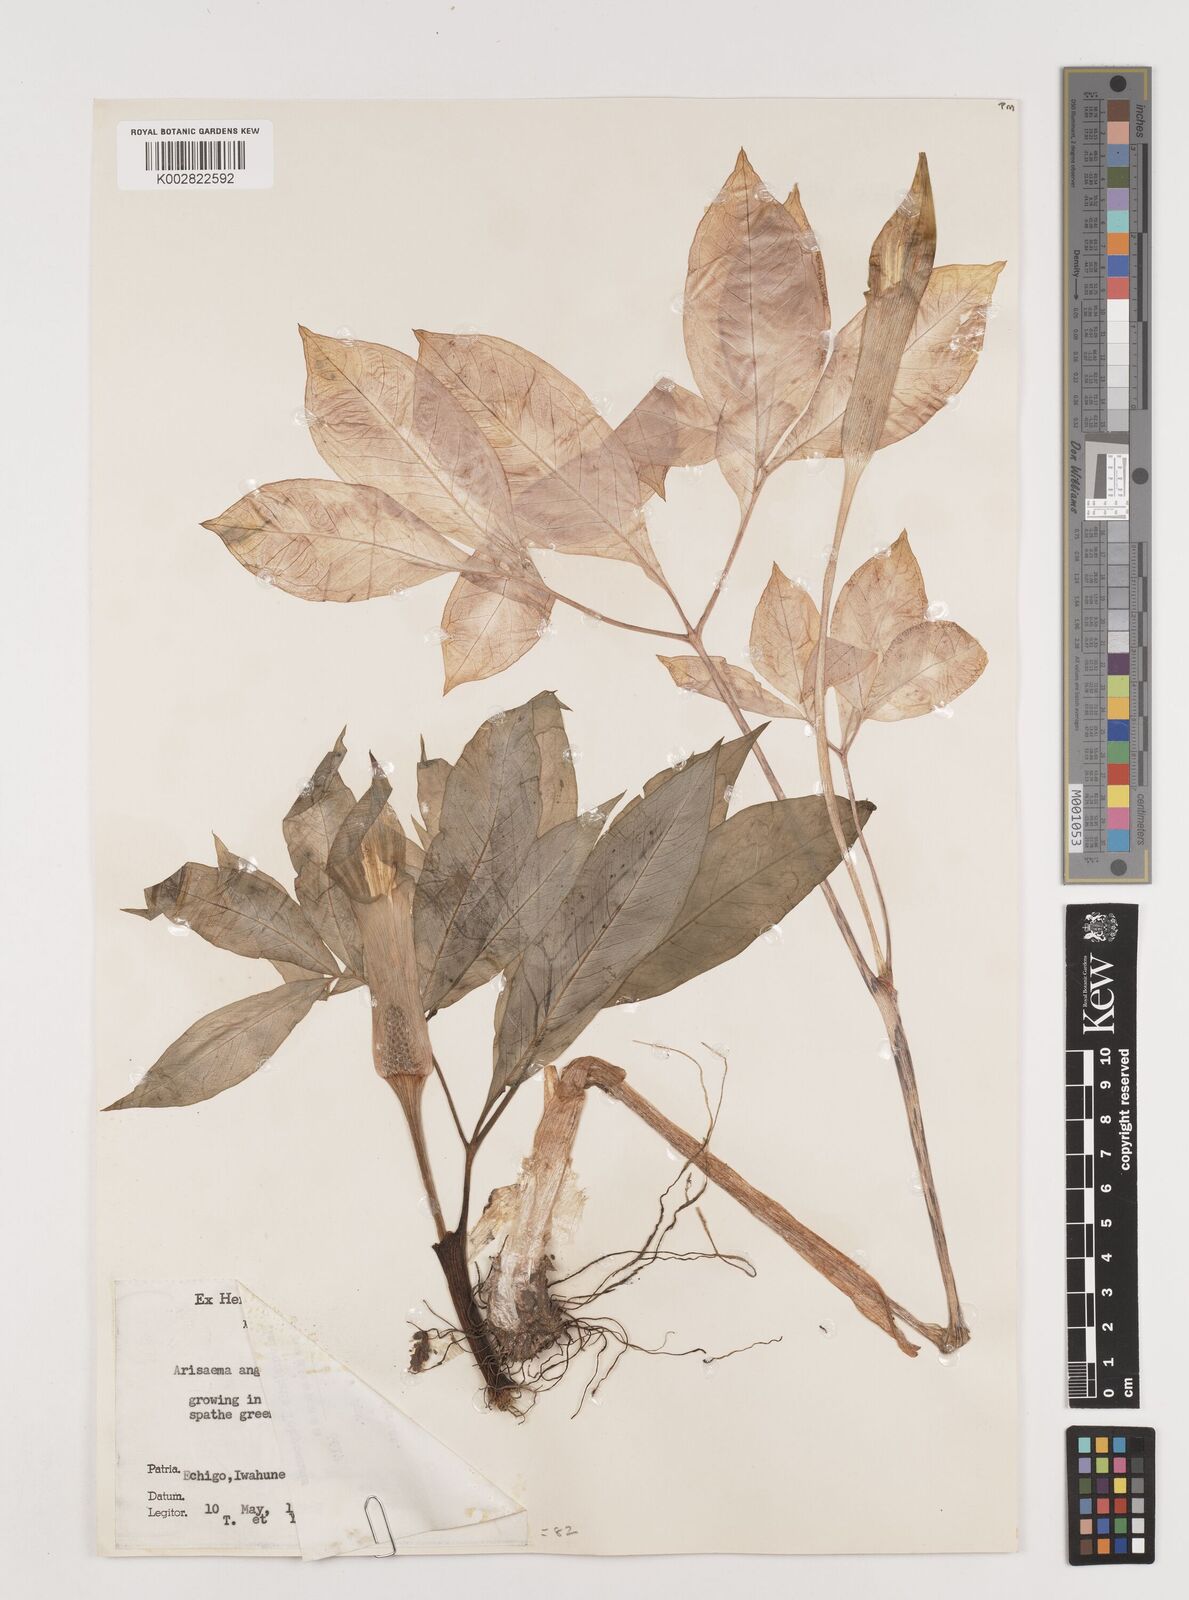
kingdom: Plantae
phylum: Tracheophyta
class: Liliopsida
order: Alismatales
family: Araceae
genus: Arisaema
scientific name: Arisaema serratum
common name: Japanese arisaema
